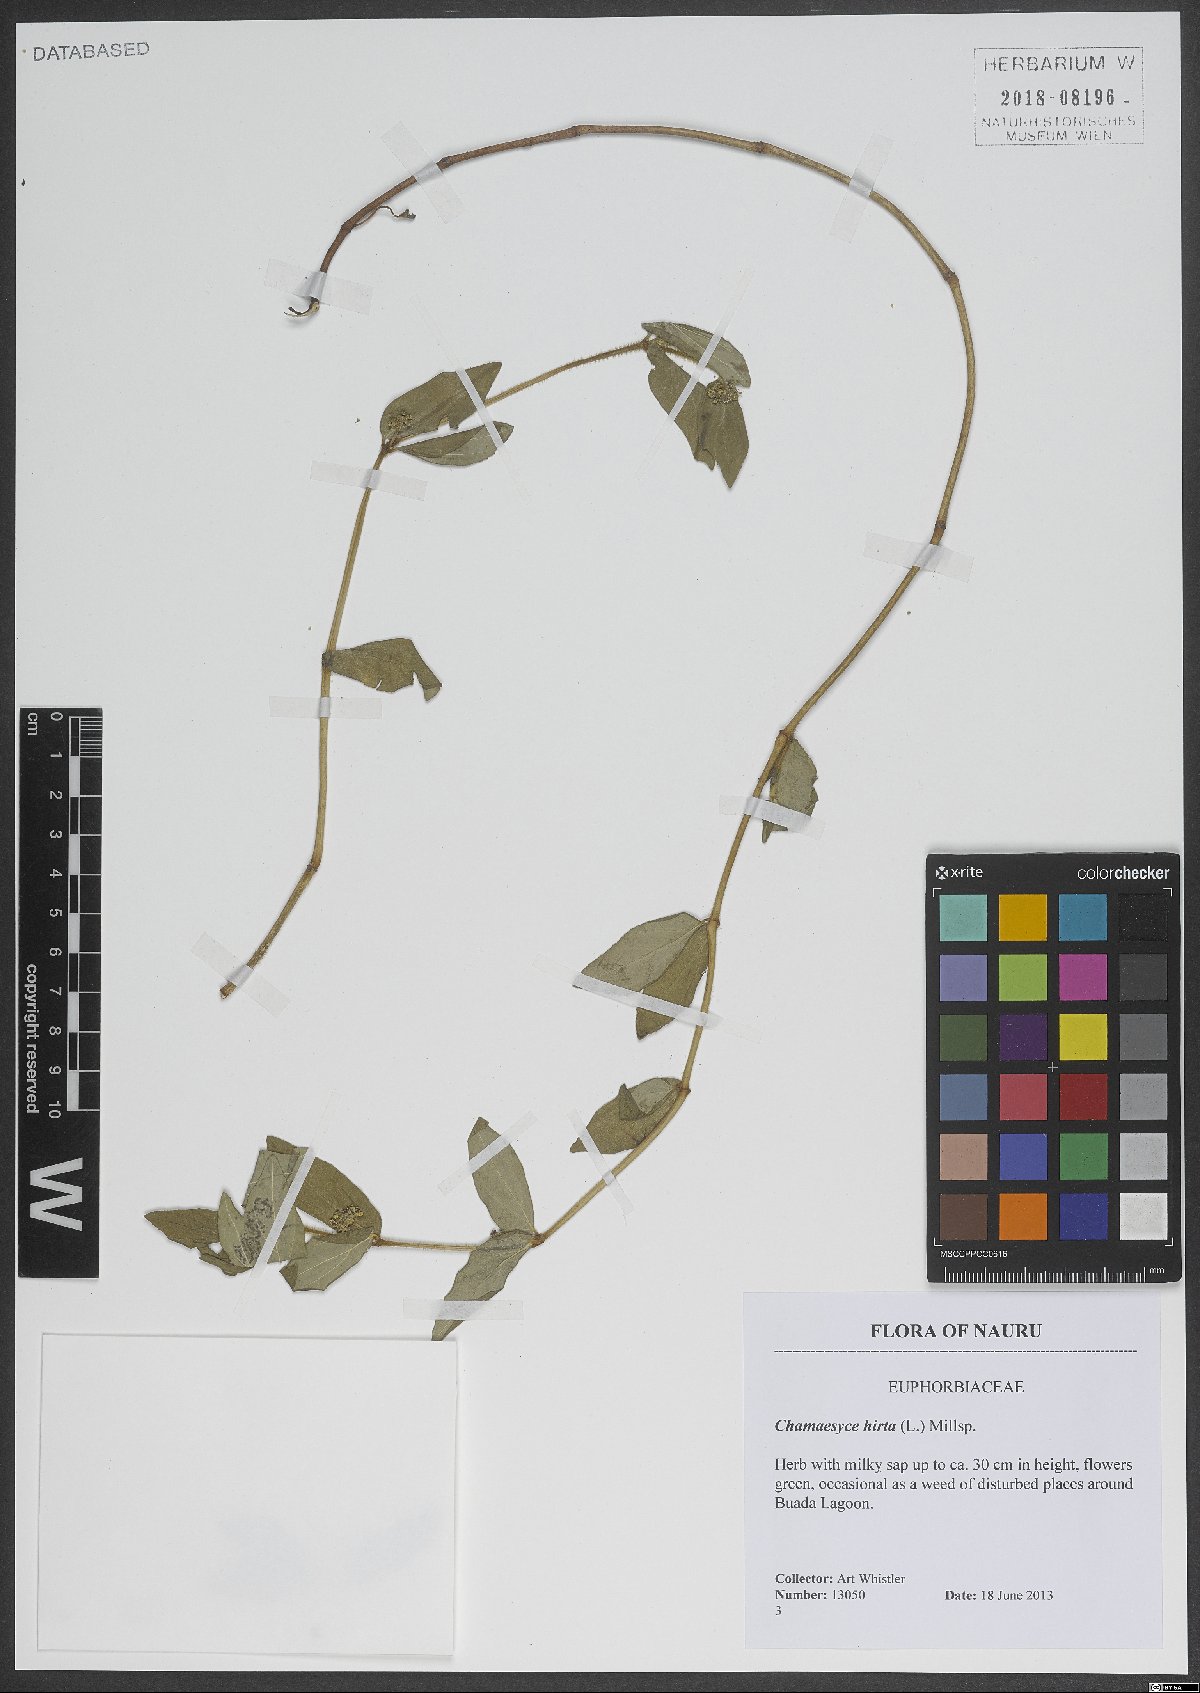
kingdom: Plantae
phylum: Tracheophyta
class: Magnoliopsida
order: Malpighiales
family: Euphorbiaceae
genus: Euphorbia
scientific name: Euphorbia hirta
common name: Pillpod sandmat
